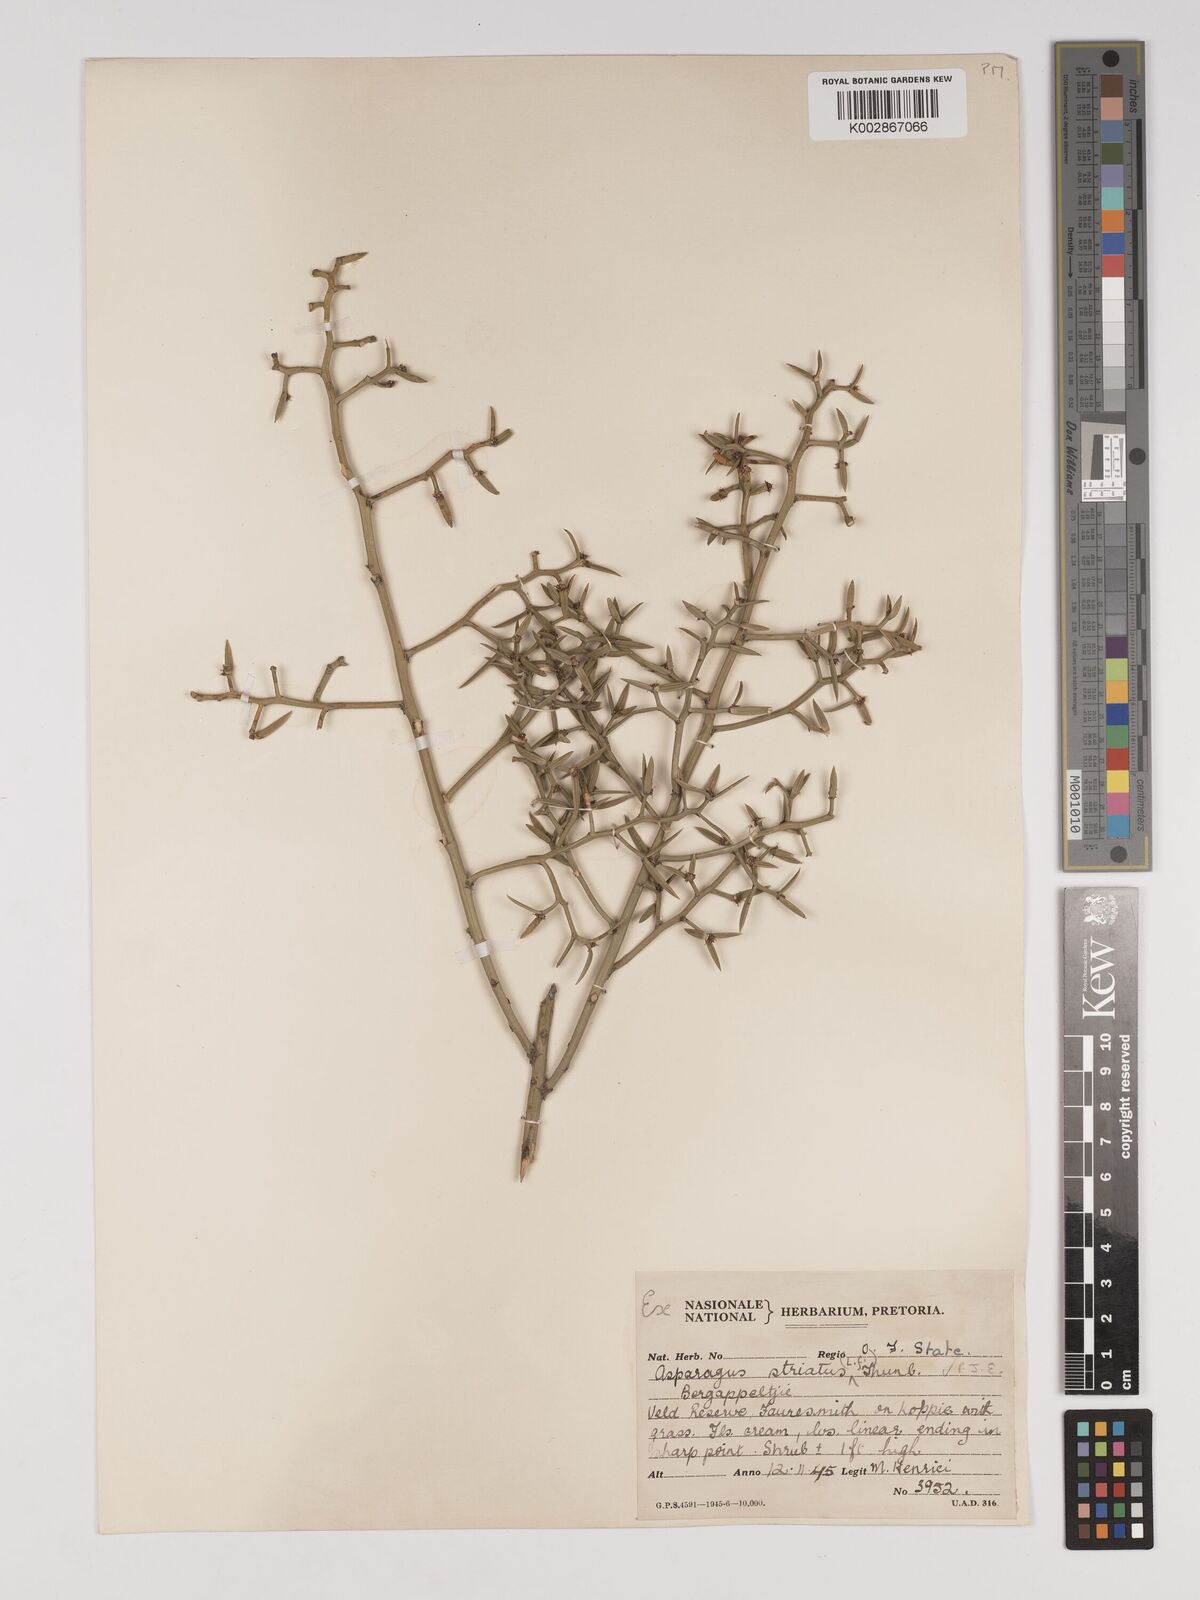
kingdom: Plantae
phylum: Tracheophyta
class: Liliopsida
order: Asparagales
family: Asparagaceae
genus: Asparagus
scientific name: Asparagus striatus
